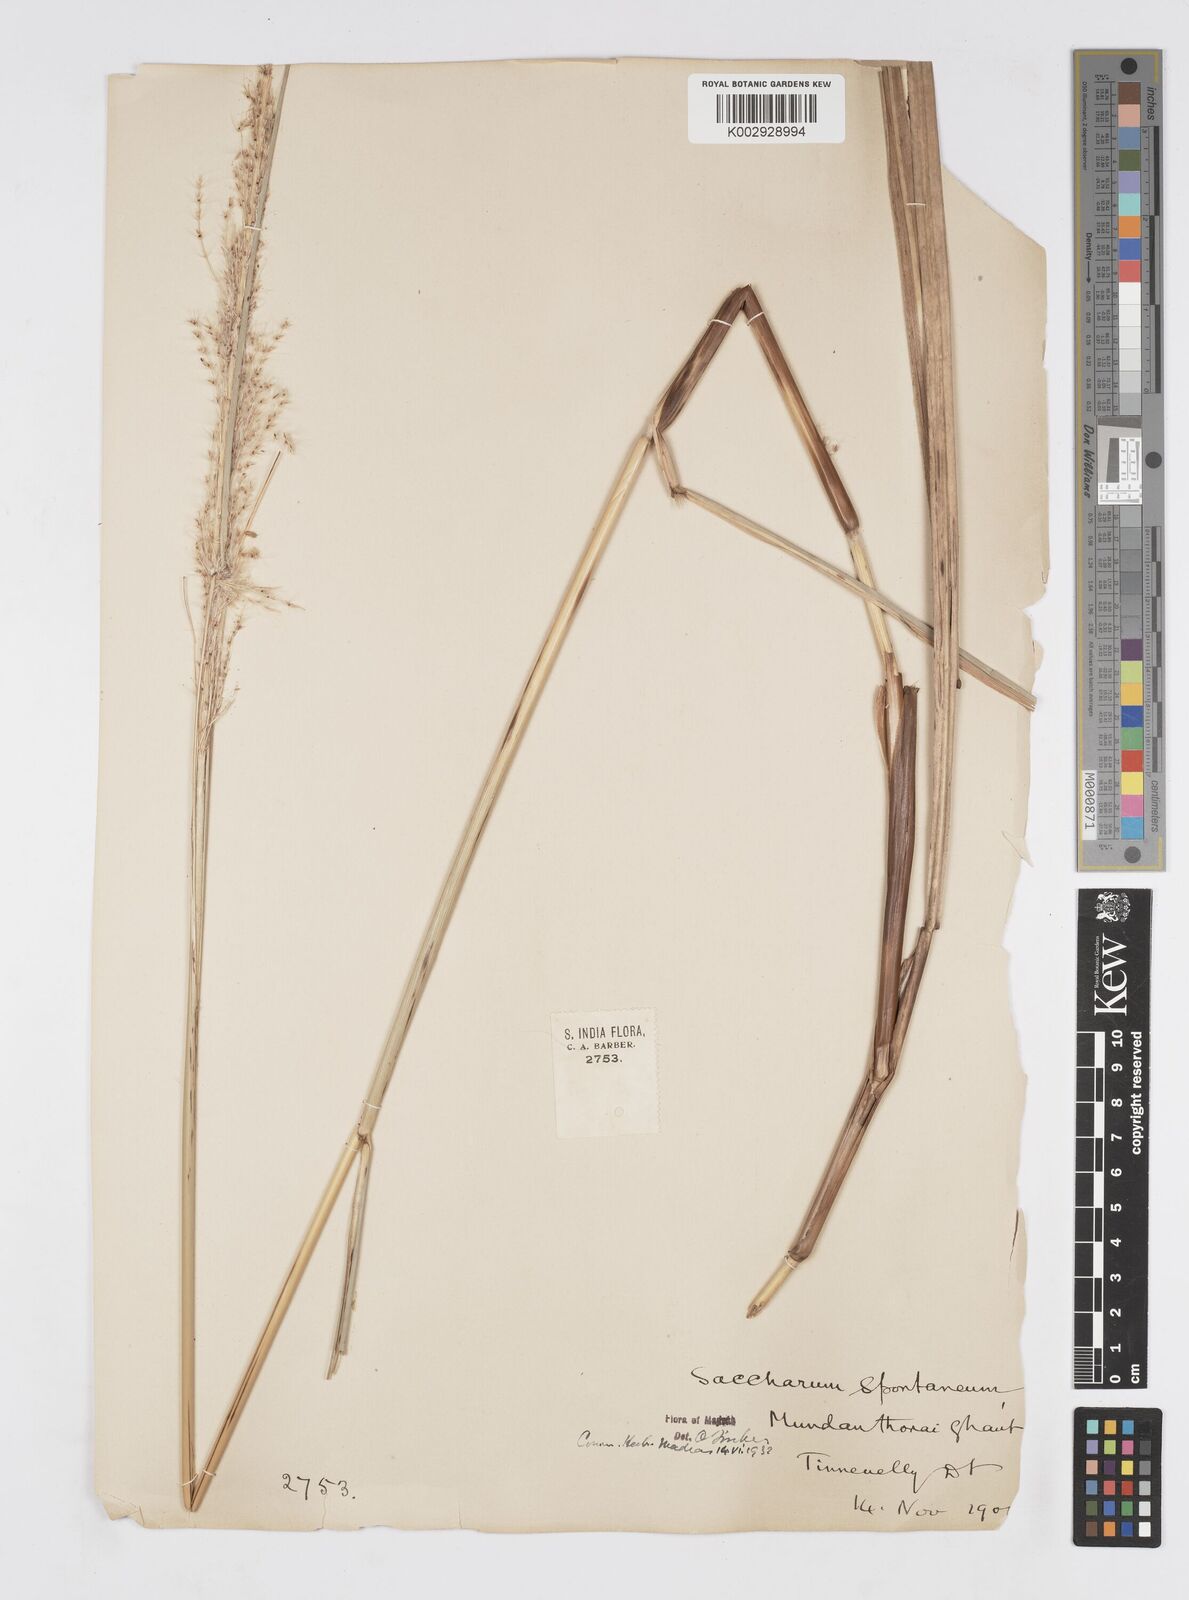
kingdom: Plantae
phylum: Tracheophyta
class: Liliopsida
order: Poales
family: Poaceae
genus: Saccharum
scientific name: Saccharum spontaneum
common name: Wild sugarcane
